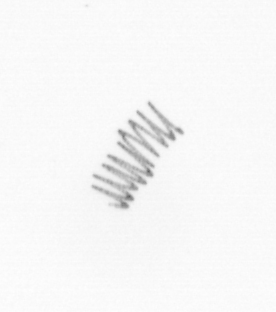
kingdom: Chromista
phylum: Ochrophyta
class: Bacillariophyceae
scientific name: Bacillariophyceae
